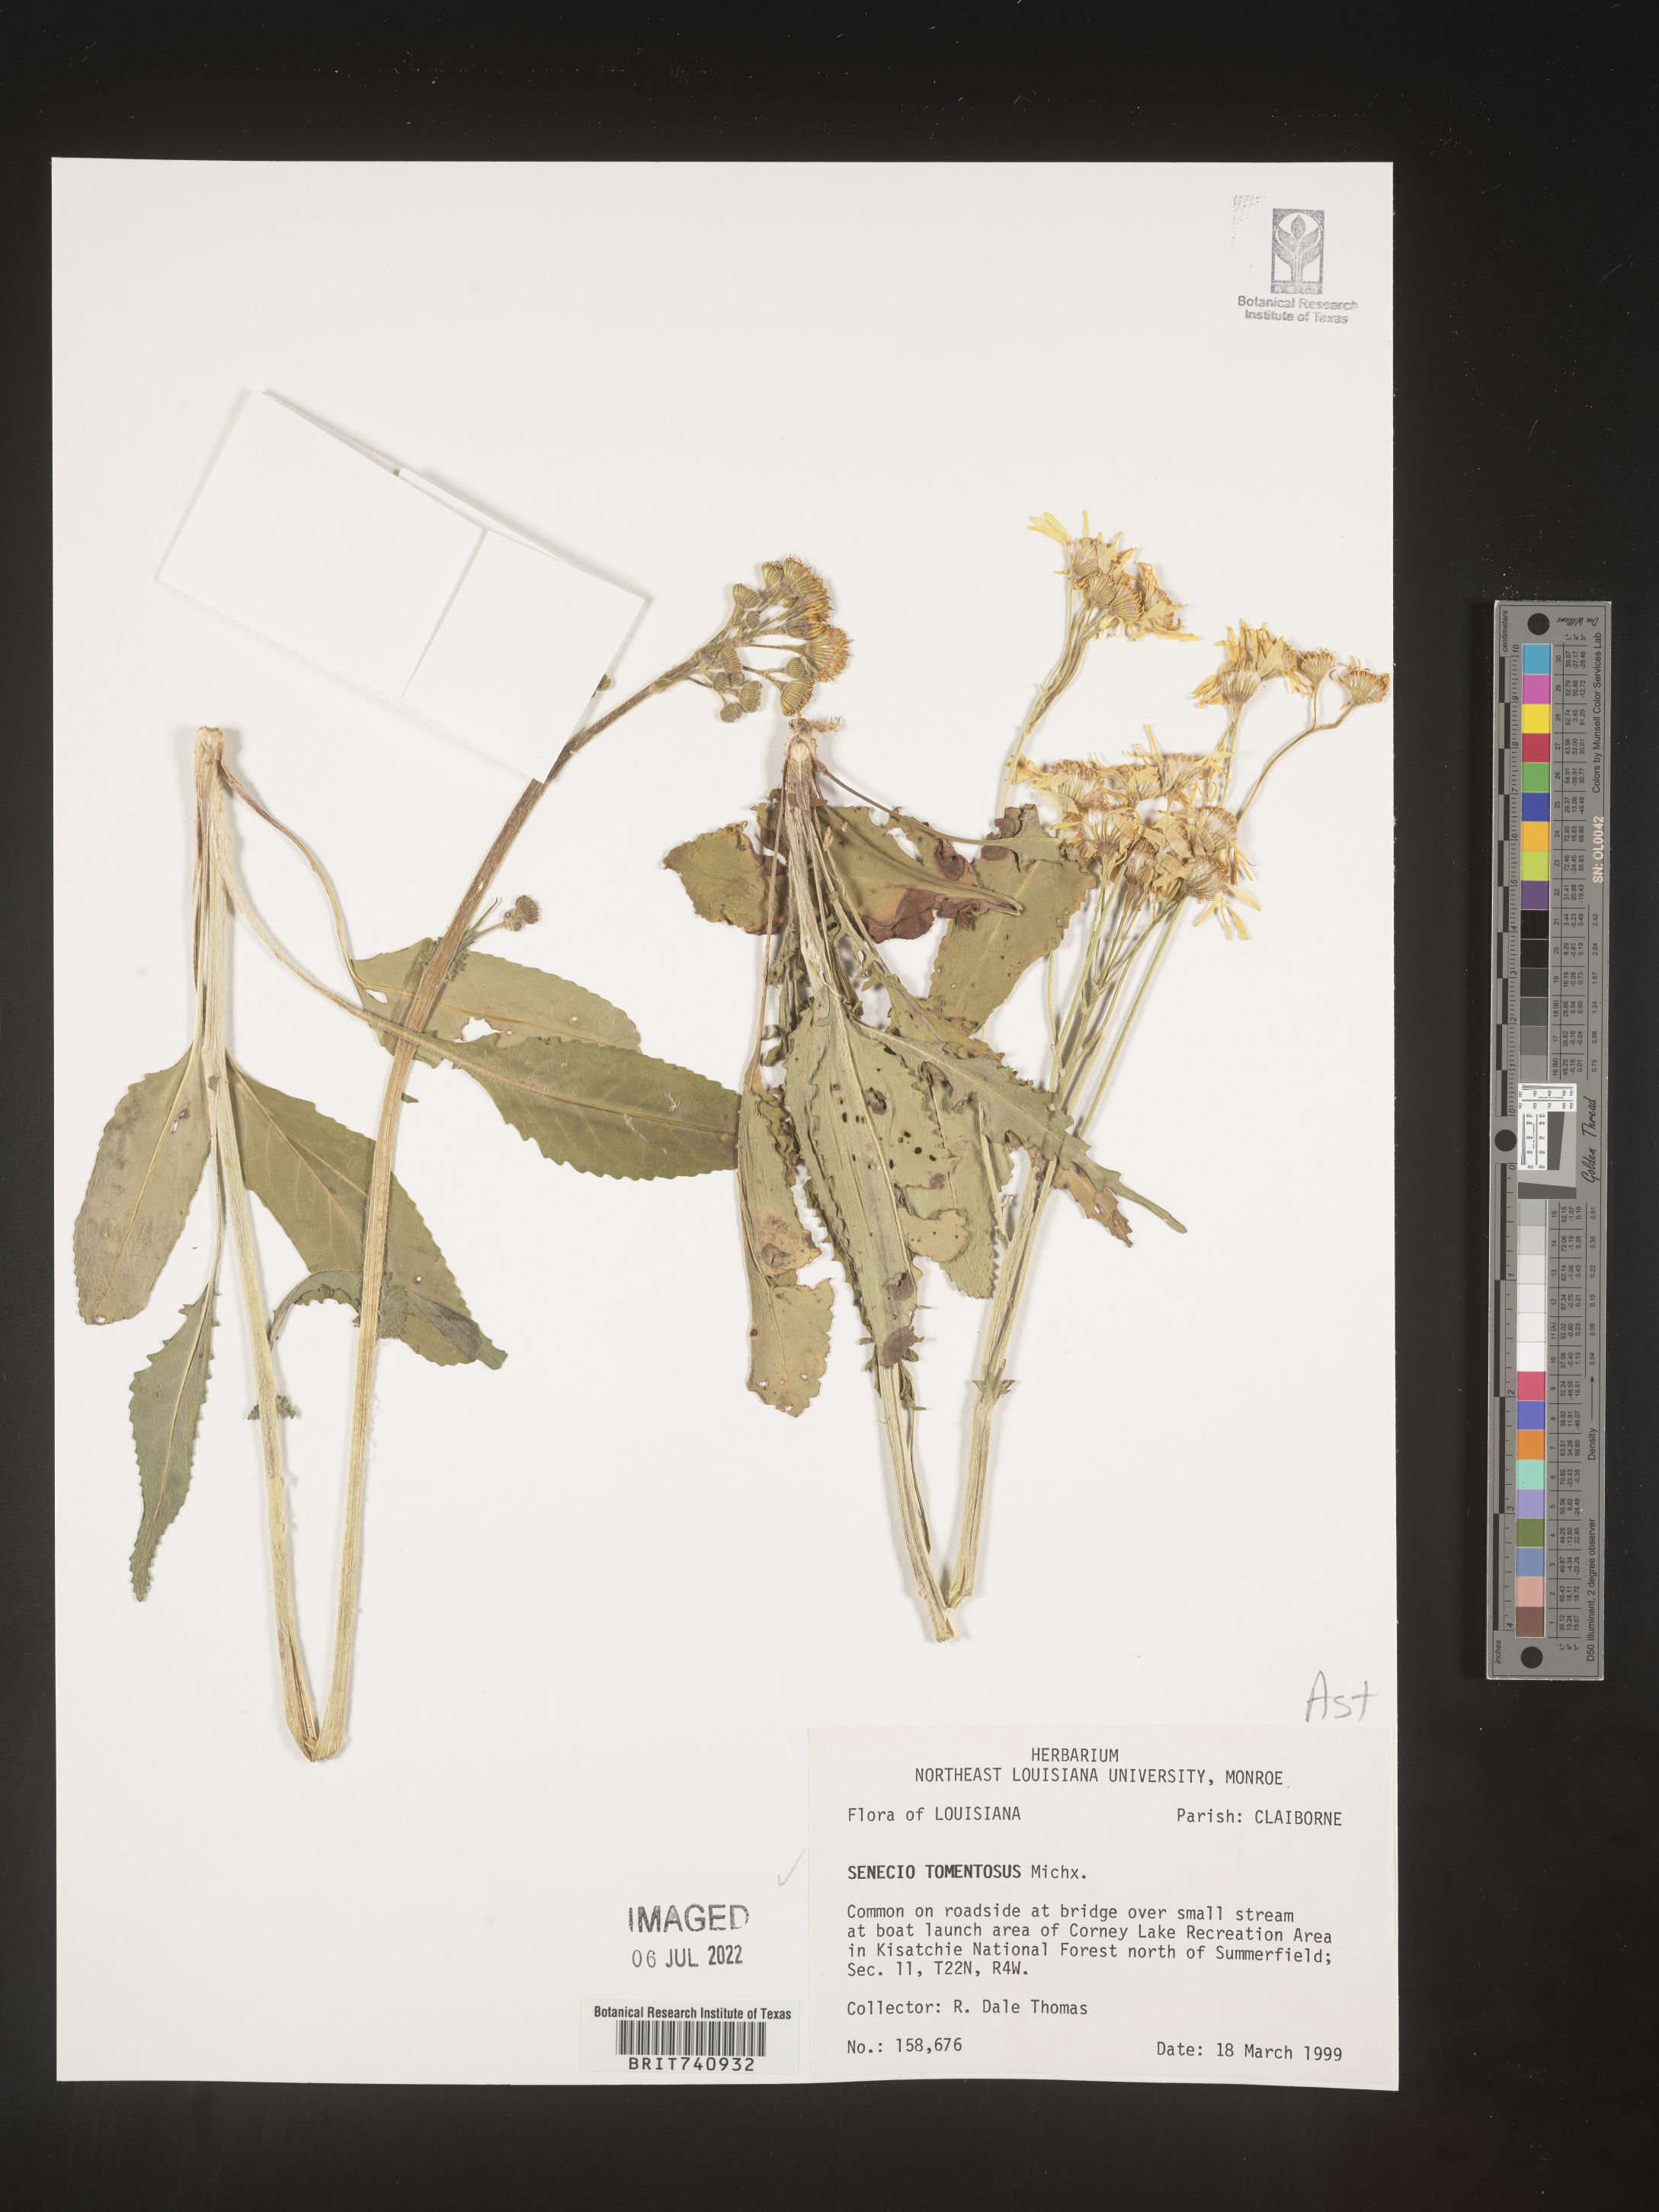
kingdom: Plantae
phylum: Tracheophyta
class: Magnoliopsida
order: Asterales
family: Asteraceae
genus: Senecio
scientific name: Senecio cinerascens
